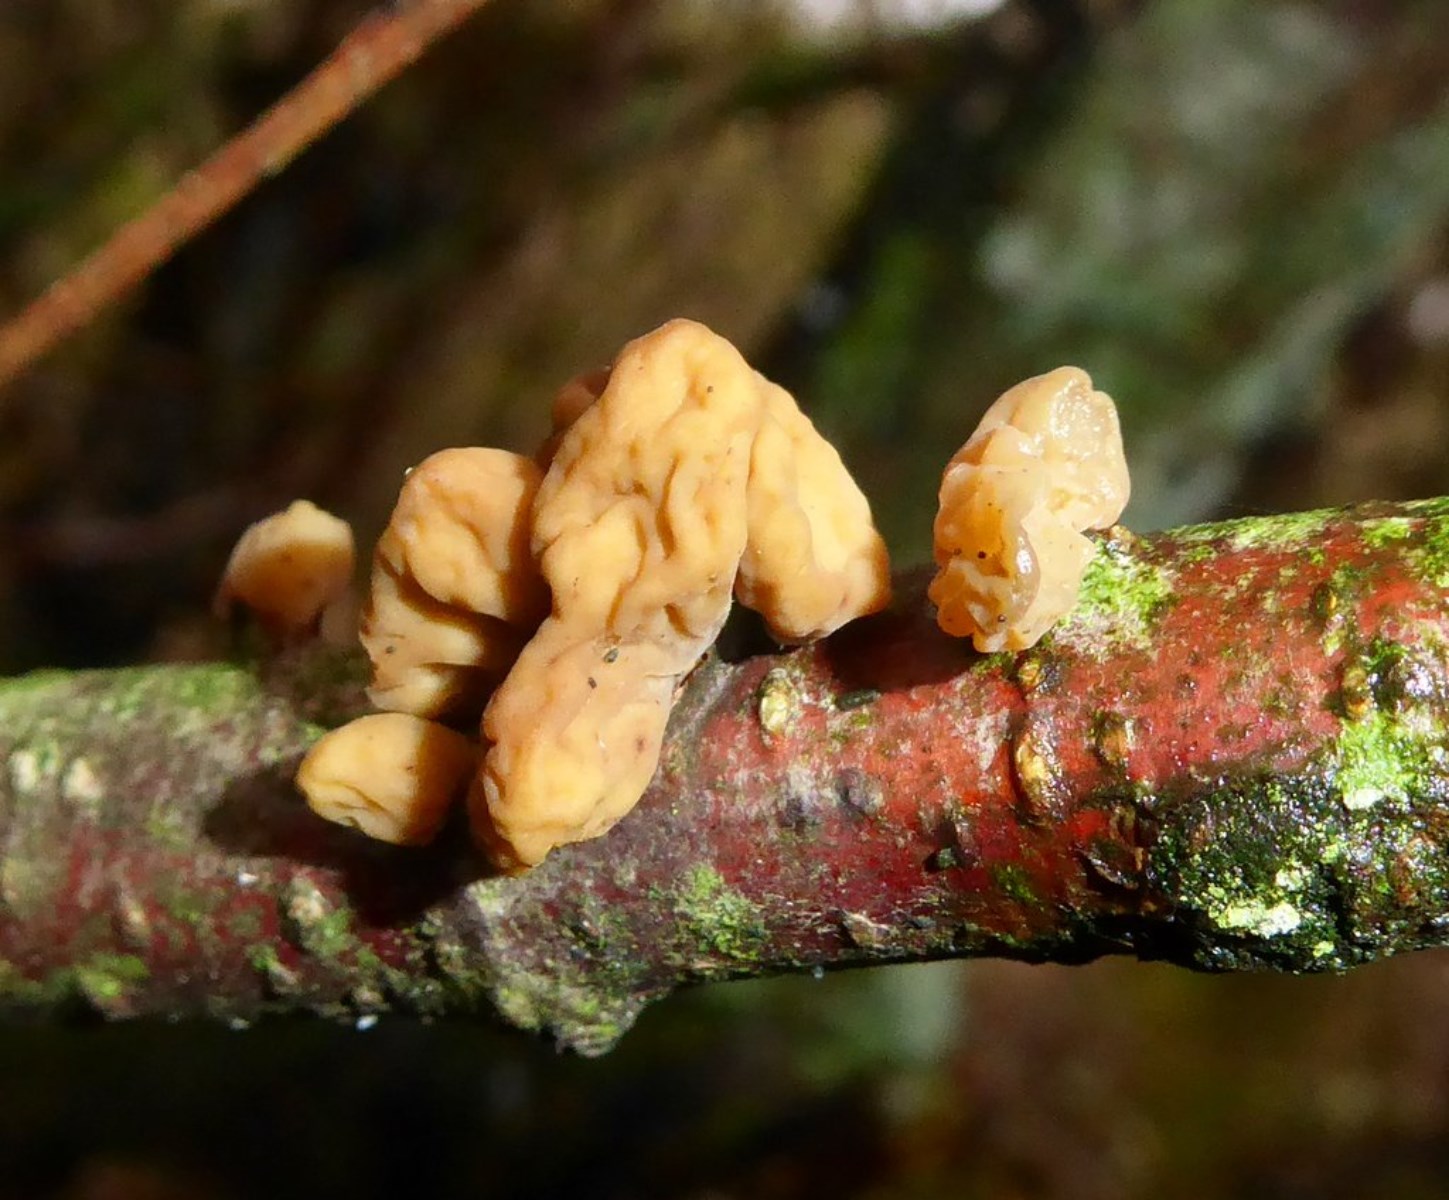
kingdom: Fungi
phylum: Basidiomycota
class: Agaricomycetes
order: Agaricales
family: Typhulaceae
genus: Typhula
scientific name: Typhula contorta
